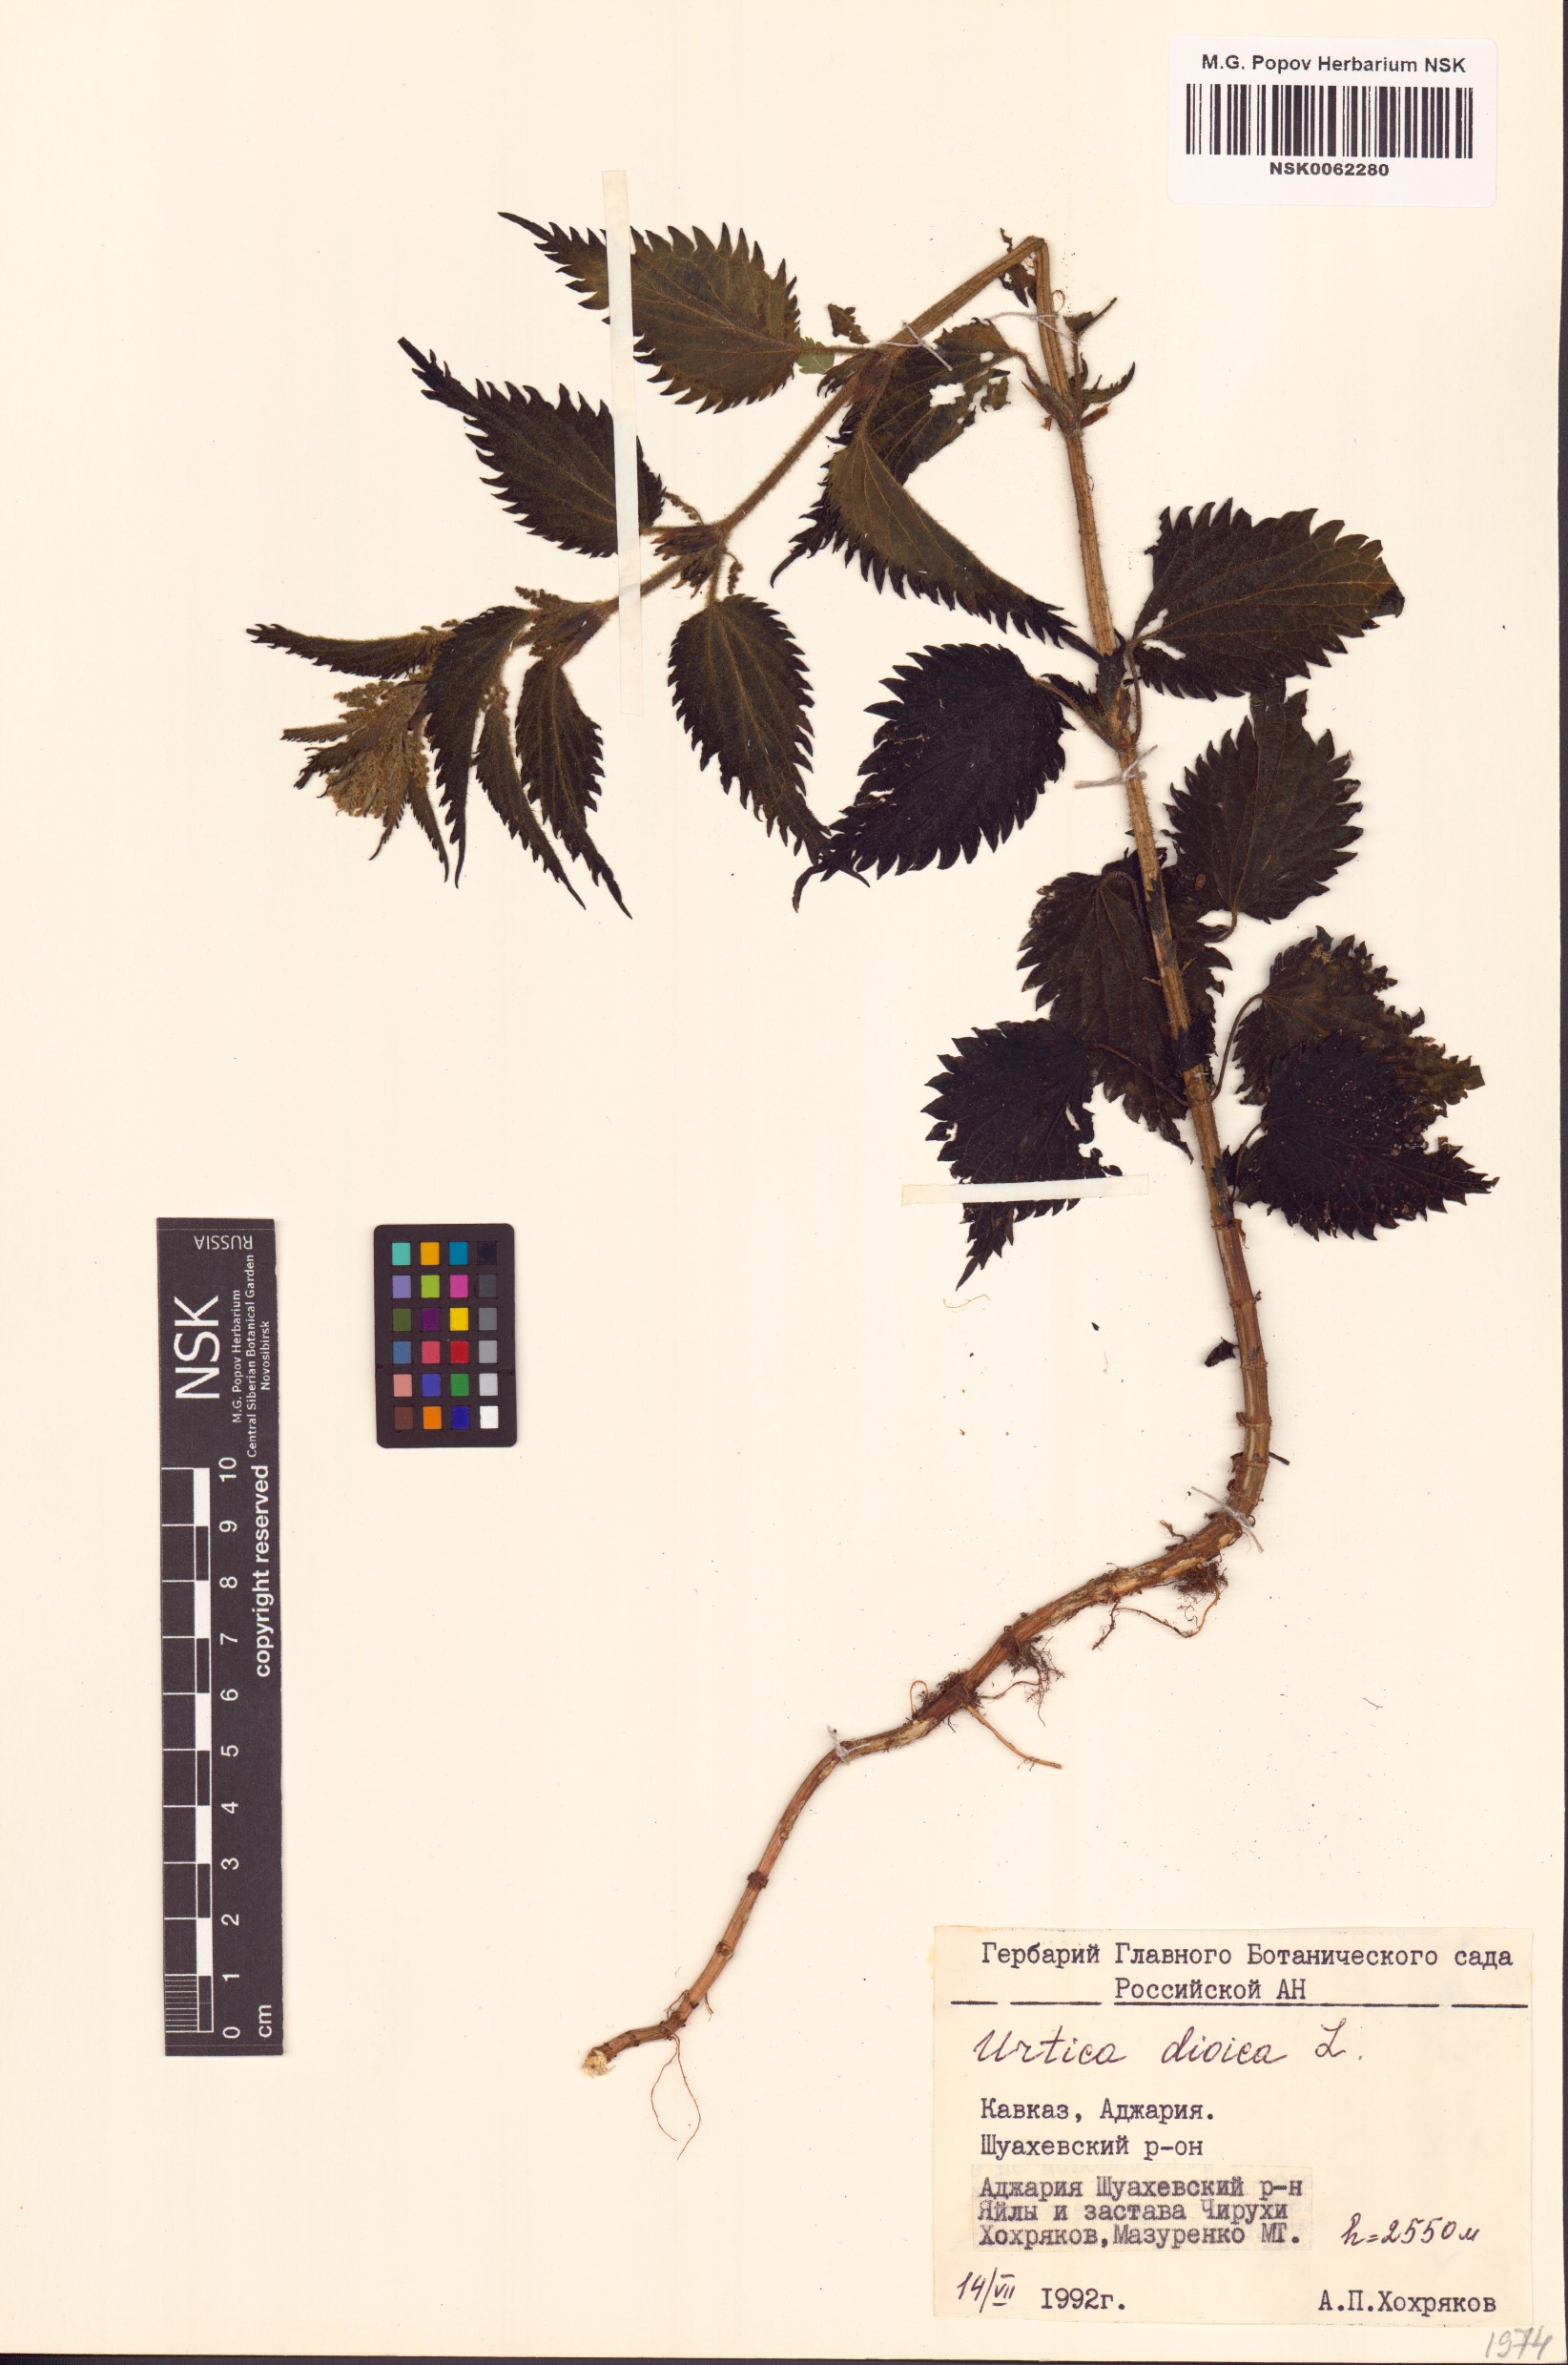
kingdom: Plantae
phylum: Tracheophyta
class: Magnoliopsida
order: Rosales
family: Urticaceae
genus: Urtica
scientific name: Urtica dioica
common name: Common nettle
